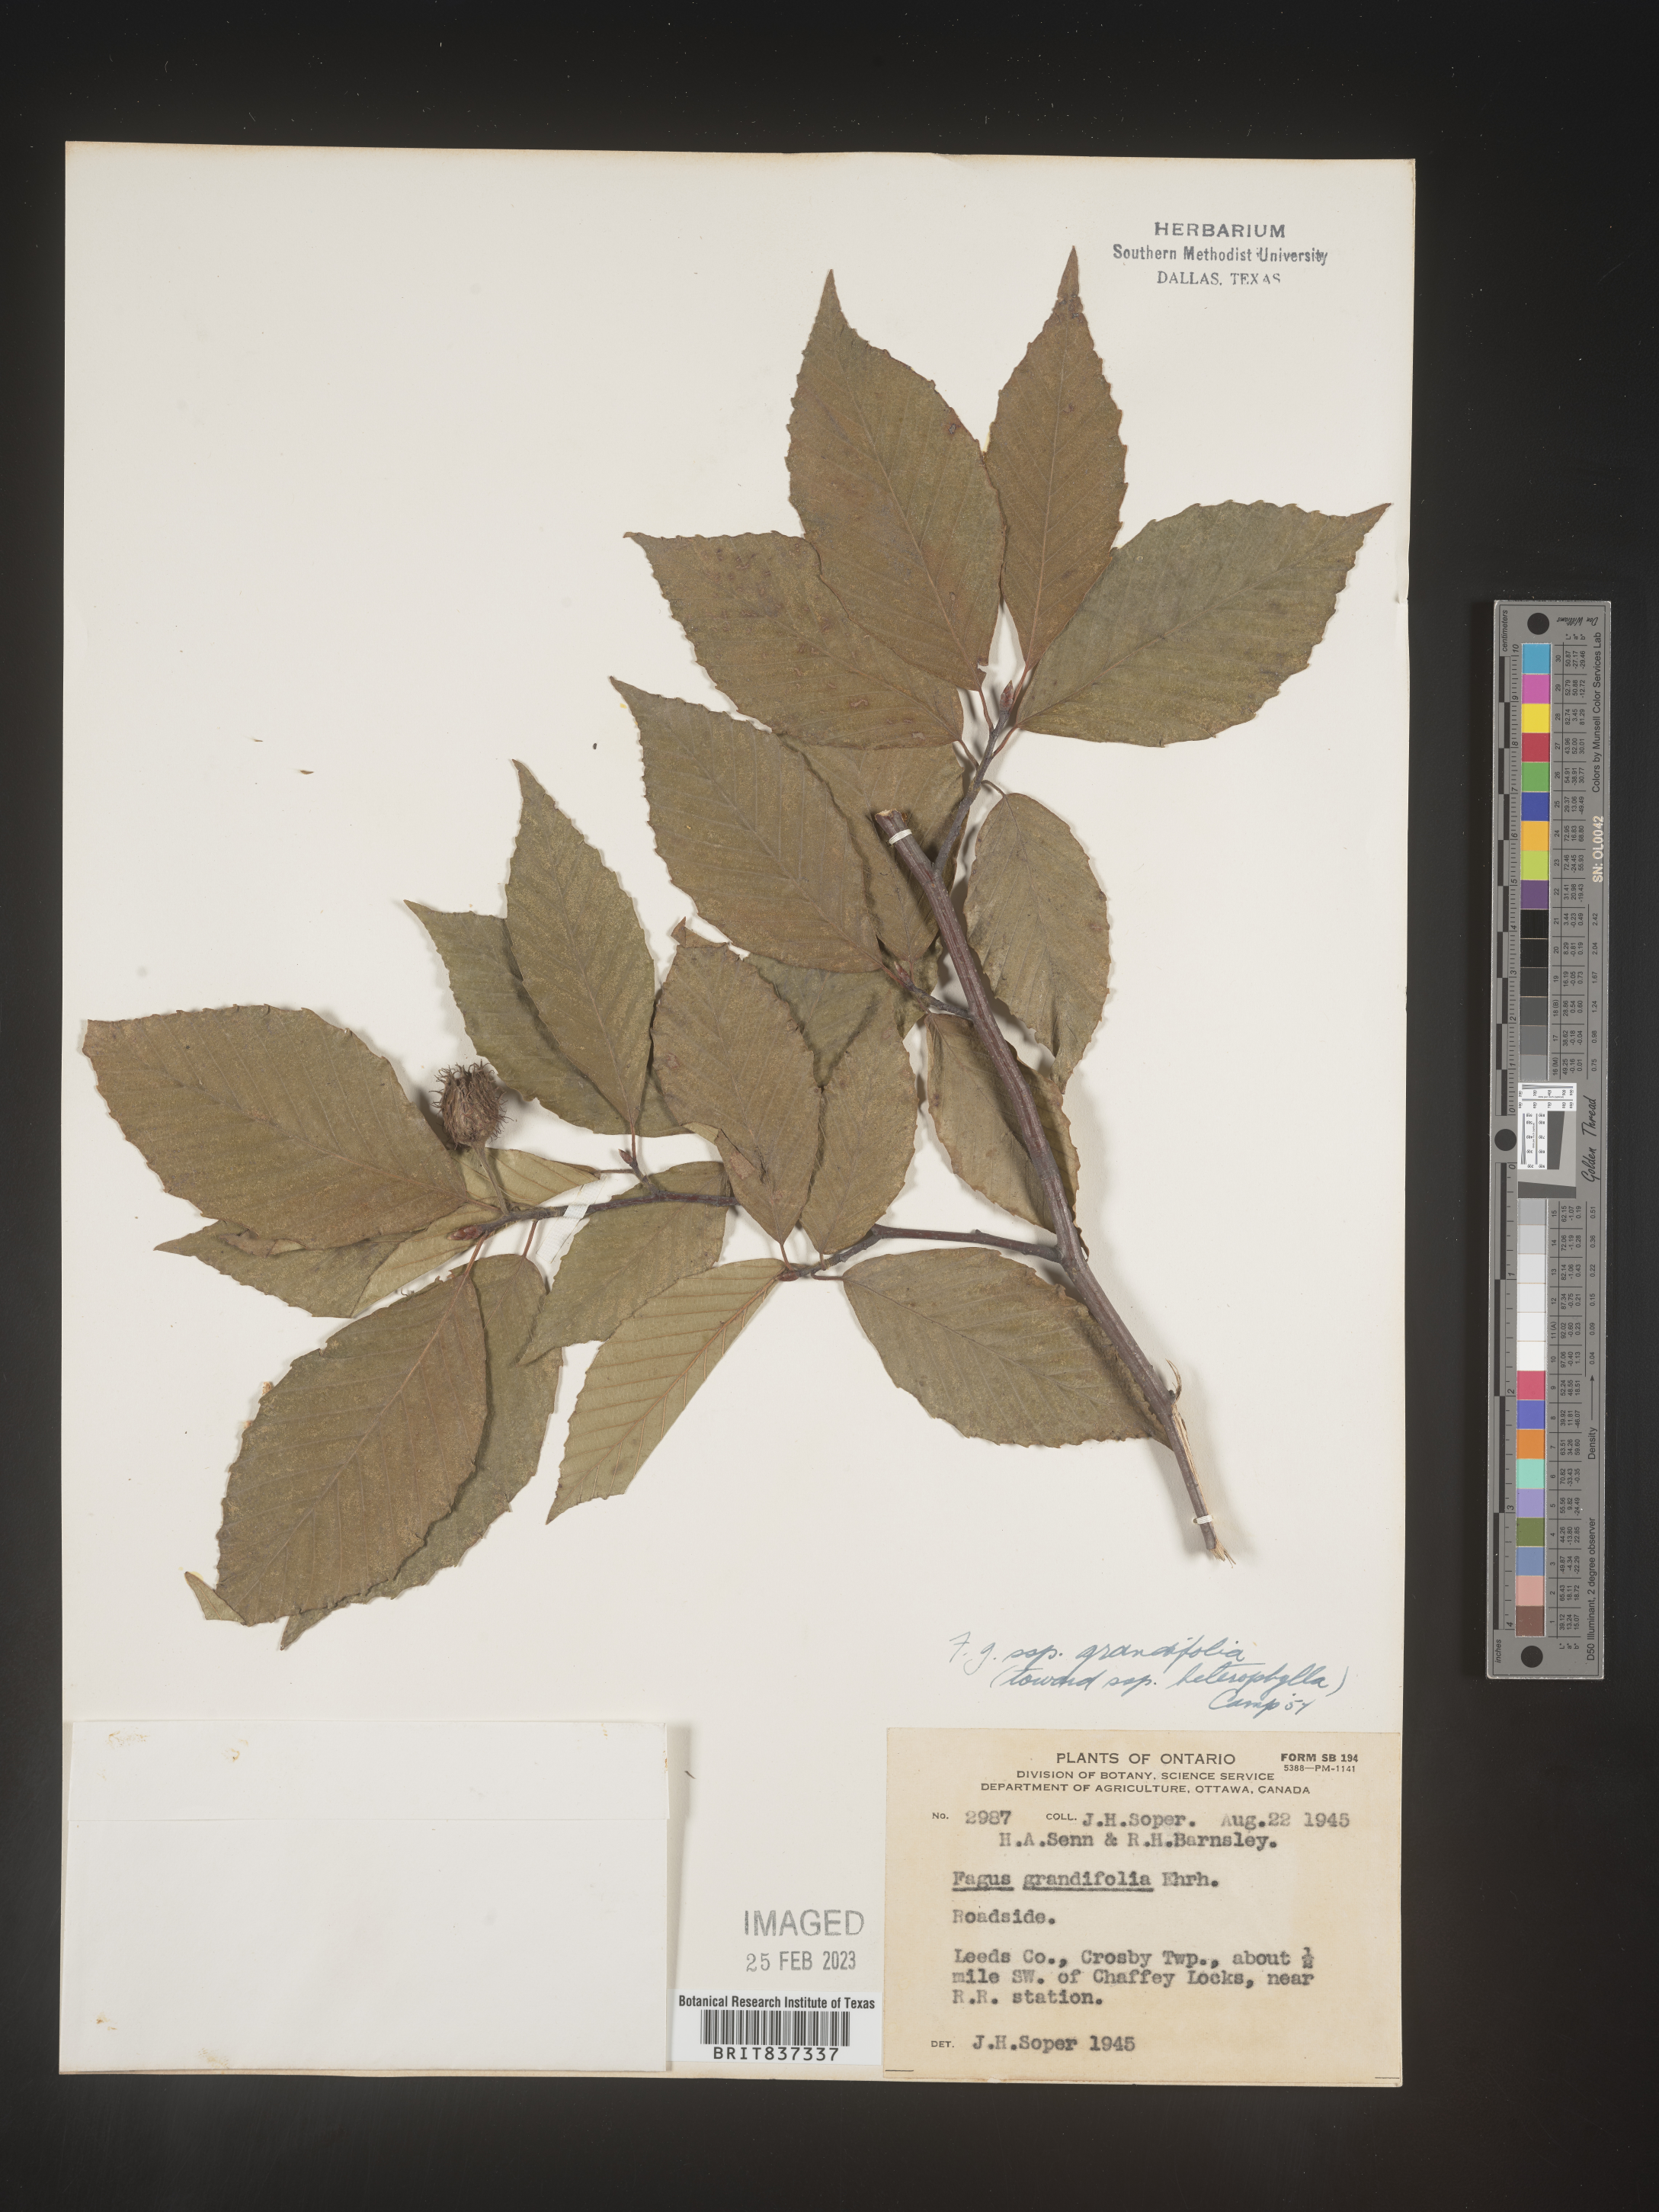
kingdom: Plantae
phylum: Tracheophyta
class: Magnoliopsida
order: Fagales
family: Fagaceae
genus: Fagus
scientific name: Fagus grandifolia
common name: American beech
